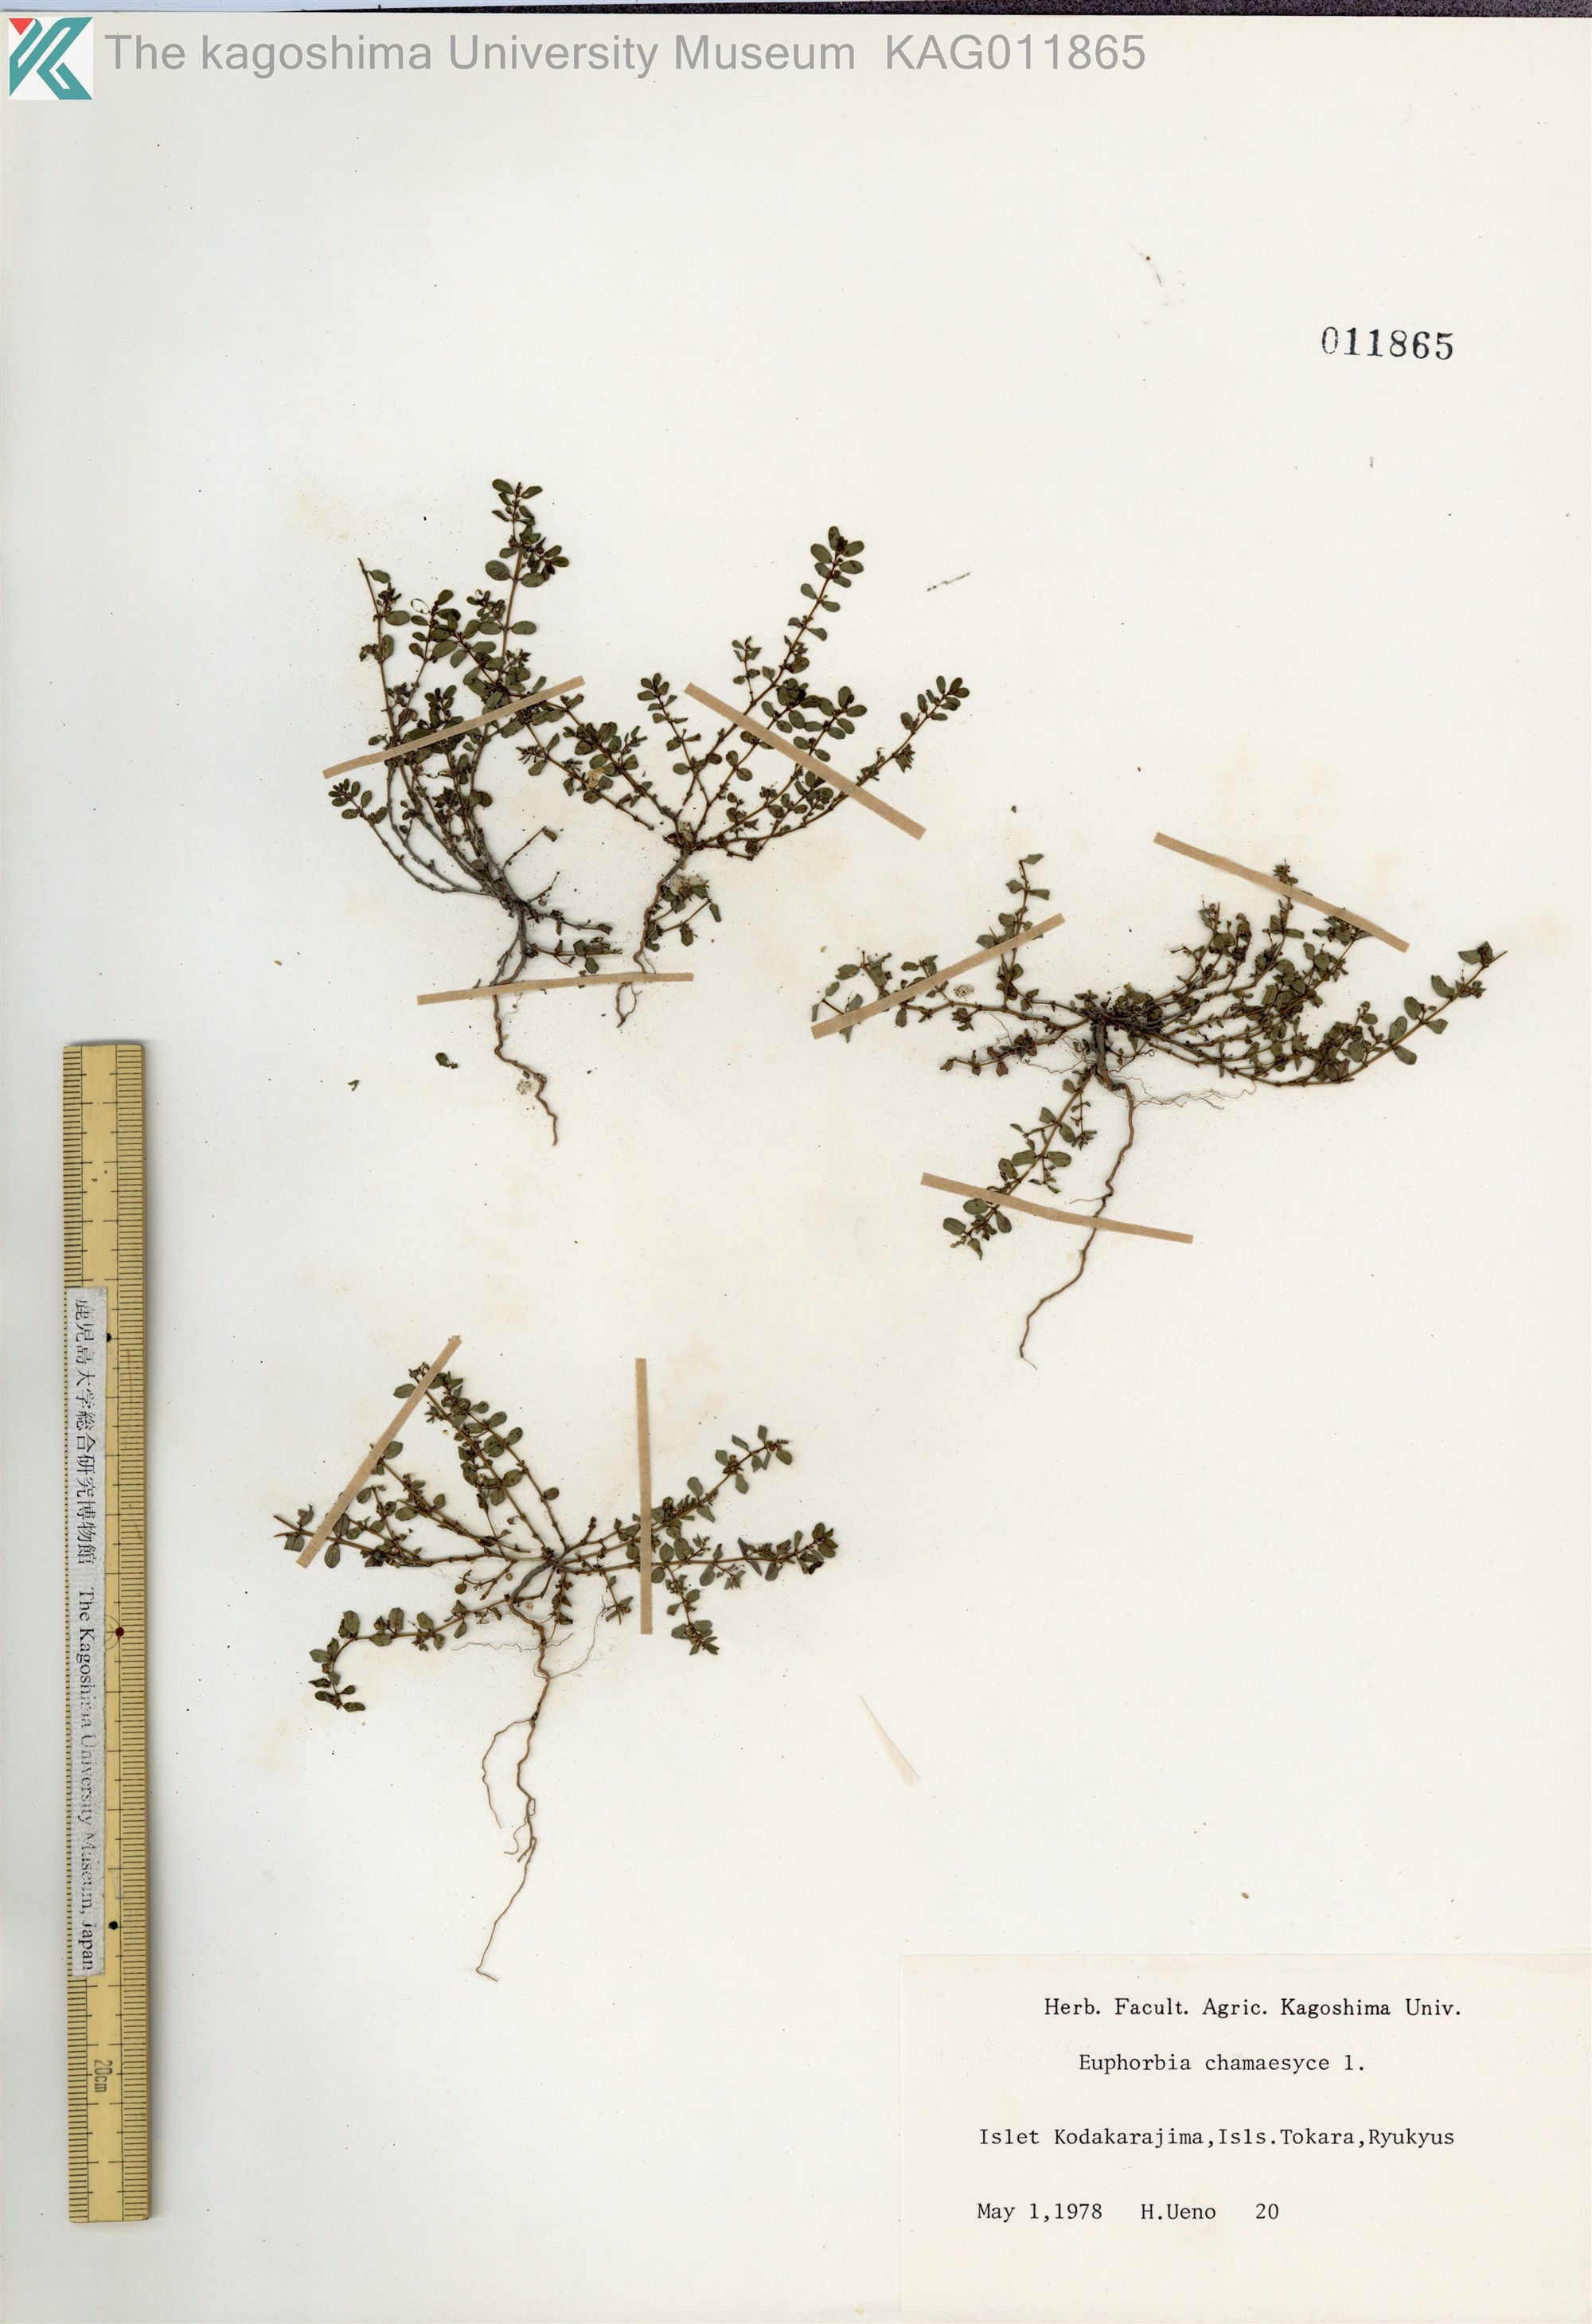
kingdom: Plantae
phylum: Tracheophyta
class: Magnoliopsida
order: Malpighiales
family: Euphorbiaceae
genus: Euphorbia
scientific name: Euphorbia prostrata
